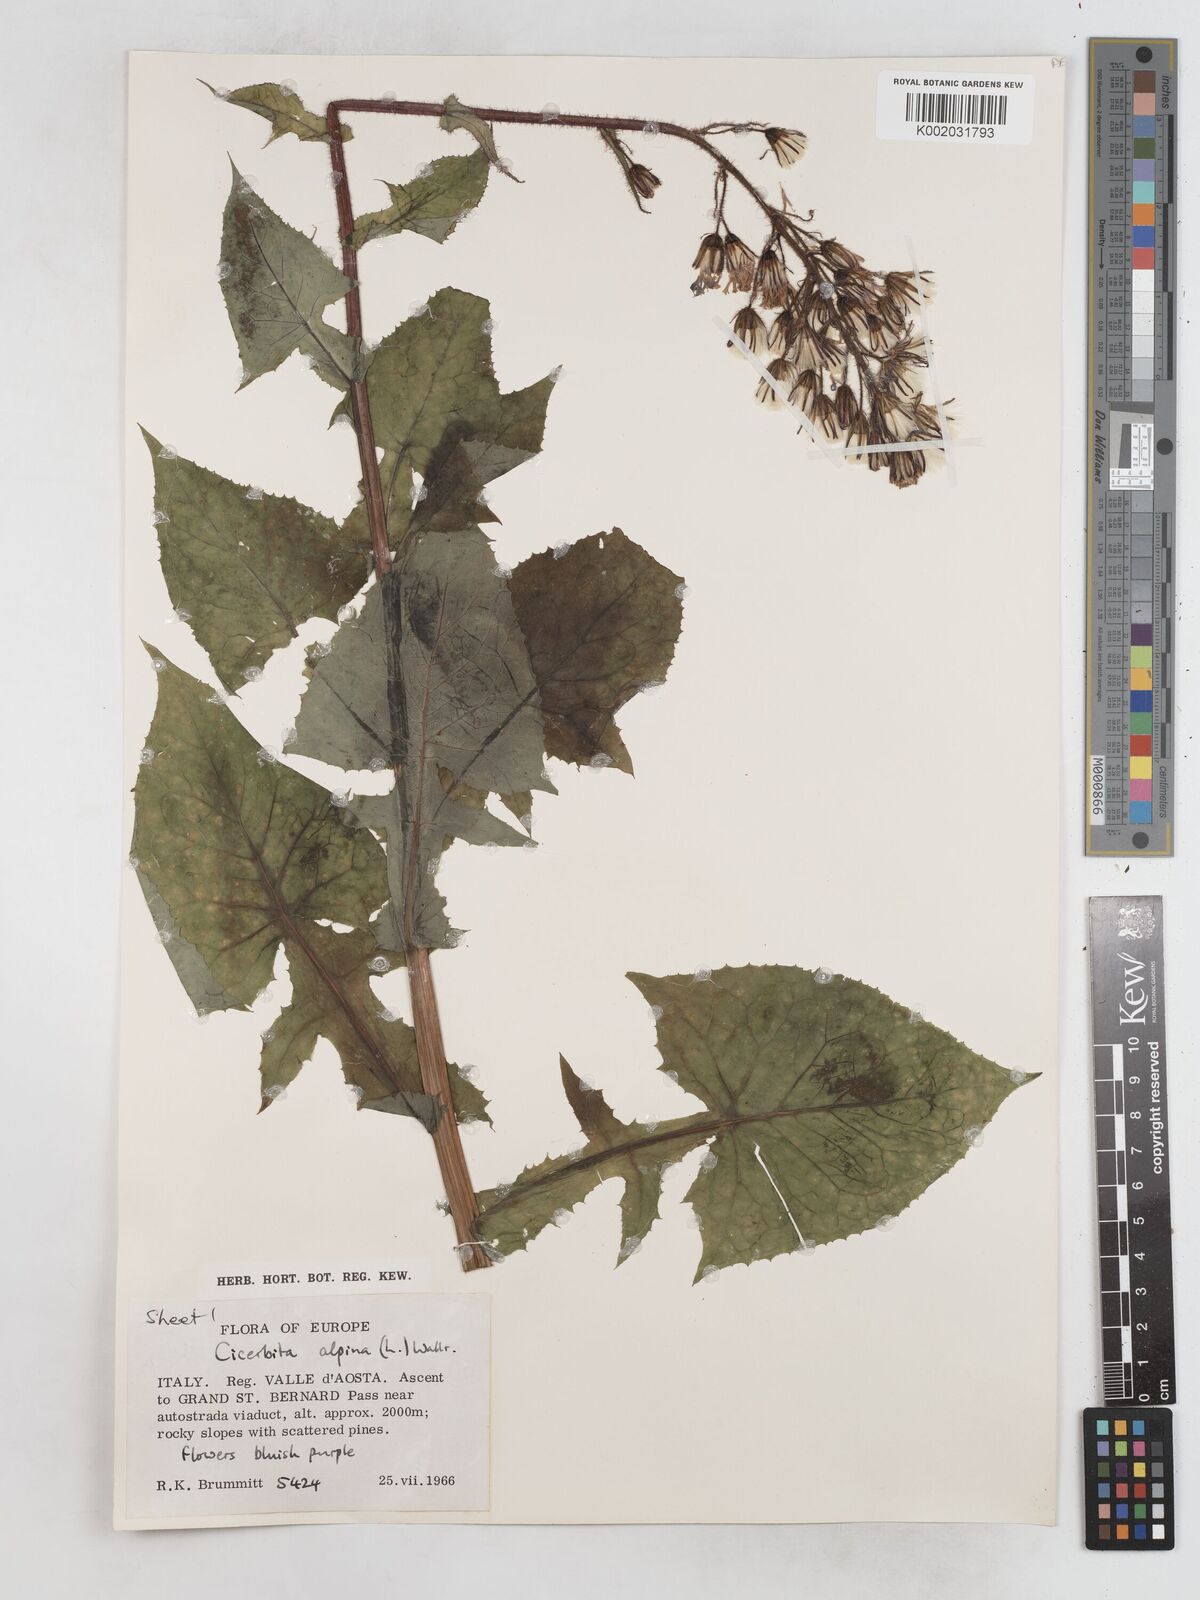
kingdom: Plantae
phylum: Tracheophyta
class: Magnoliopsida
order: Asterales
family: Asteraceae
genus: Cicerbita
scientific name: Cicerbita alpina
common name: Alpine blue-sow-thistle
